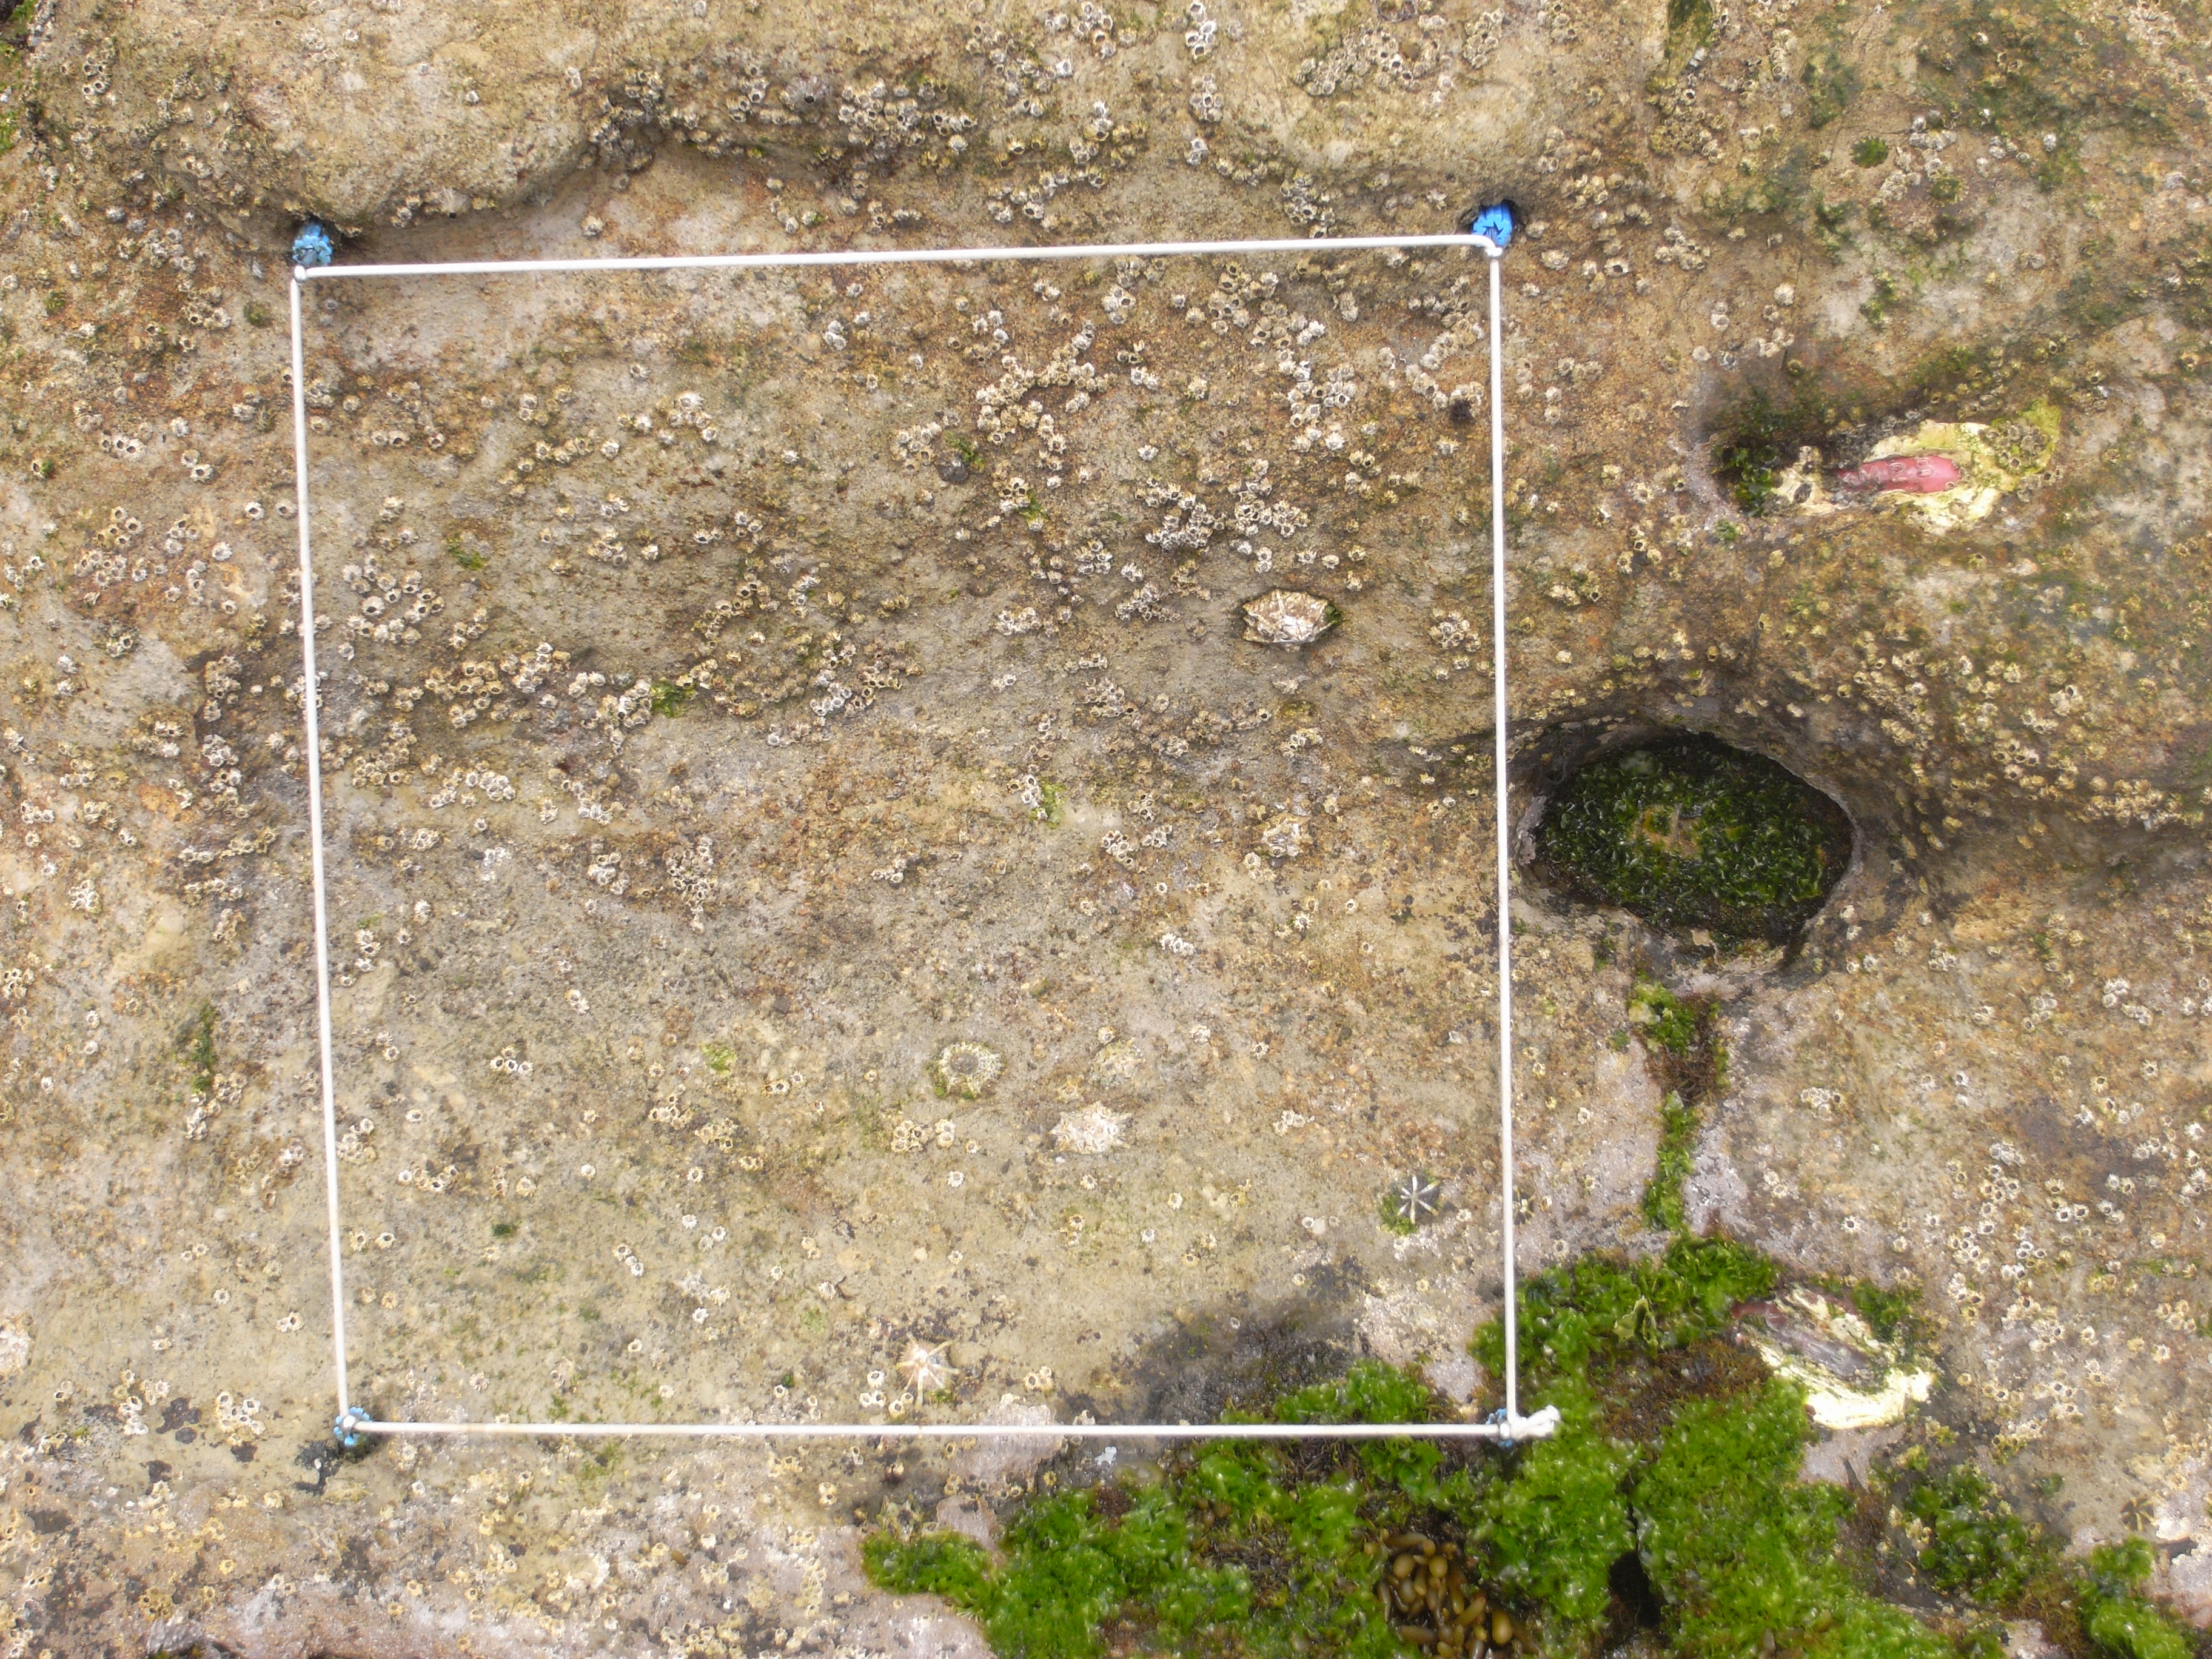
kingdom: Animalia
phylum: Arthropoda
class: Maxillopoda
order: Sessilia
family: Chthamalidae
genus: Chthamalus
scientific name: Chthamalus challengeri
